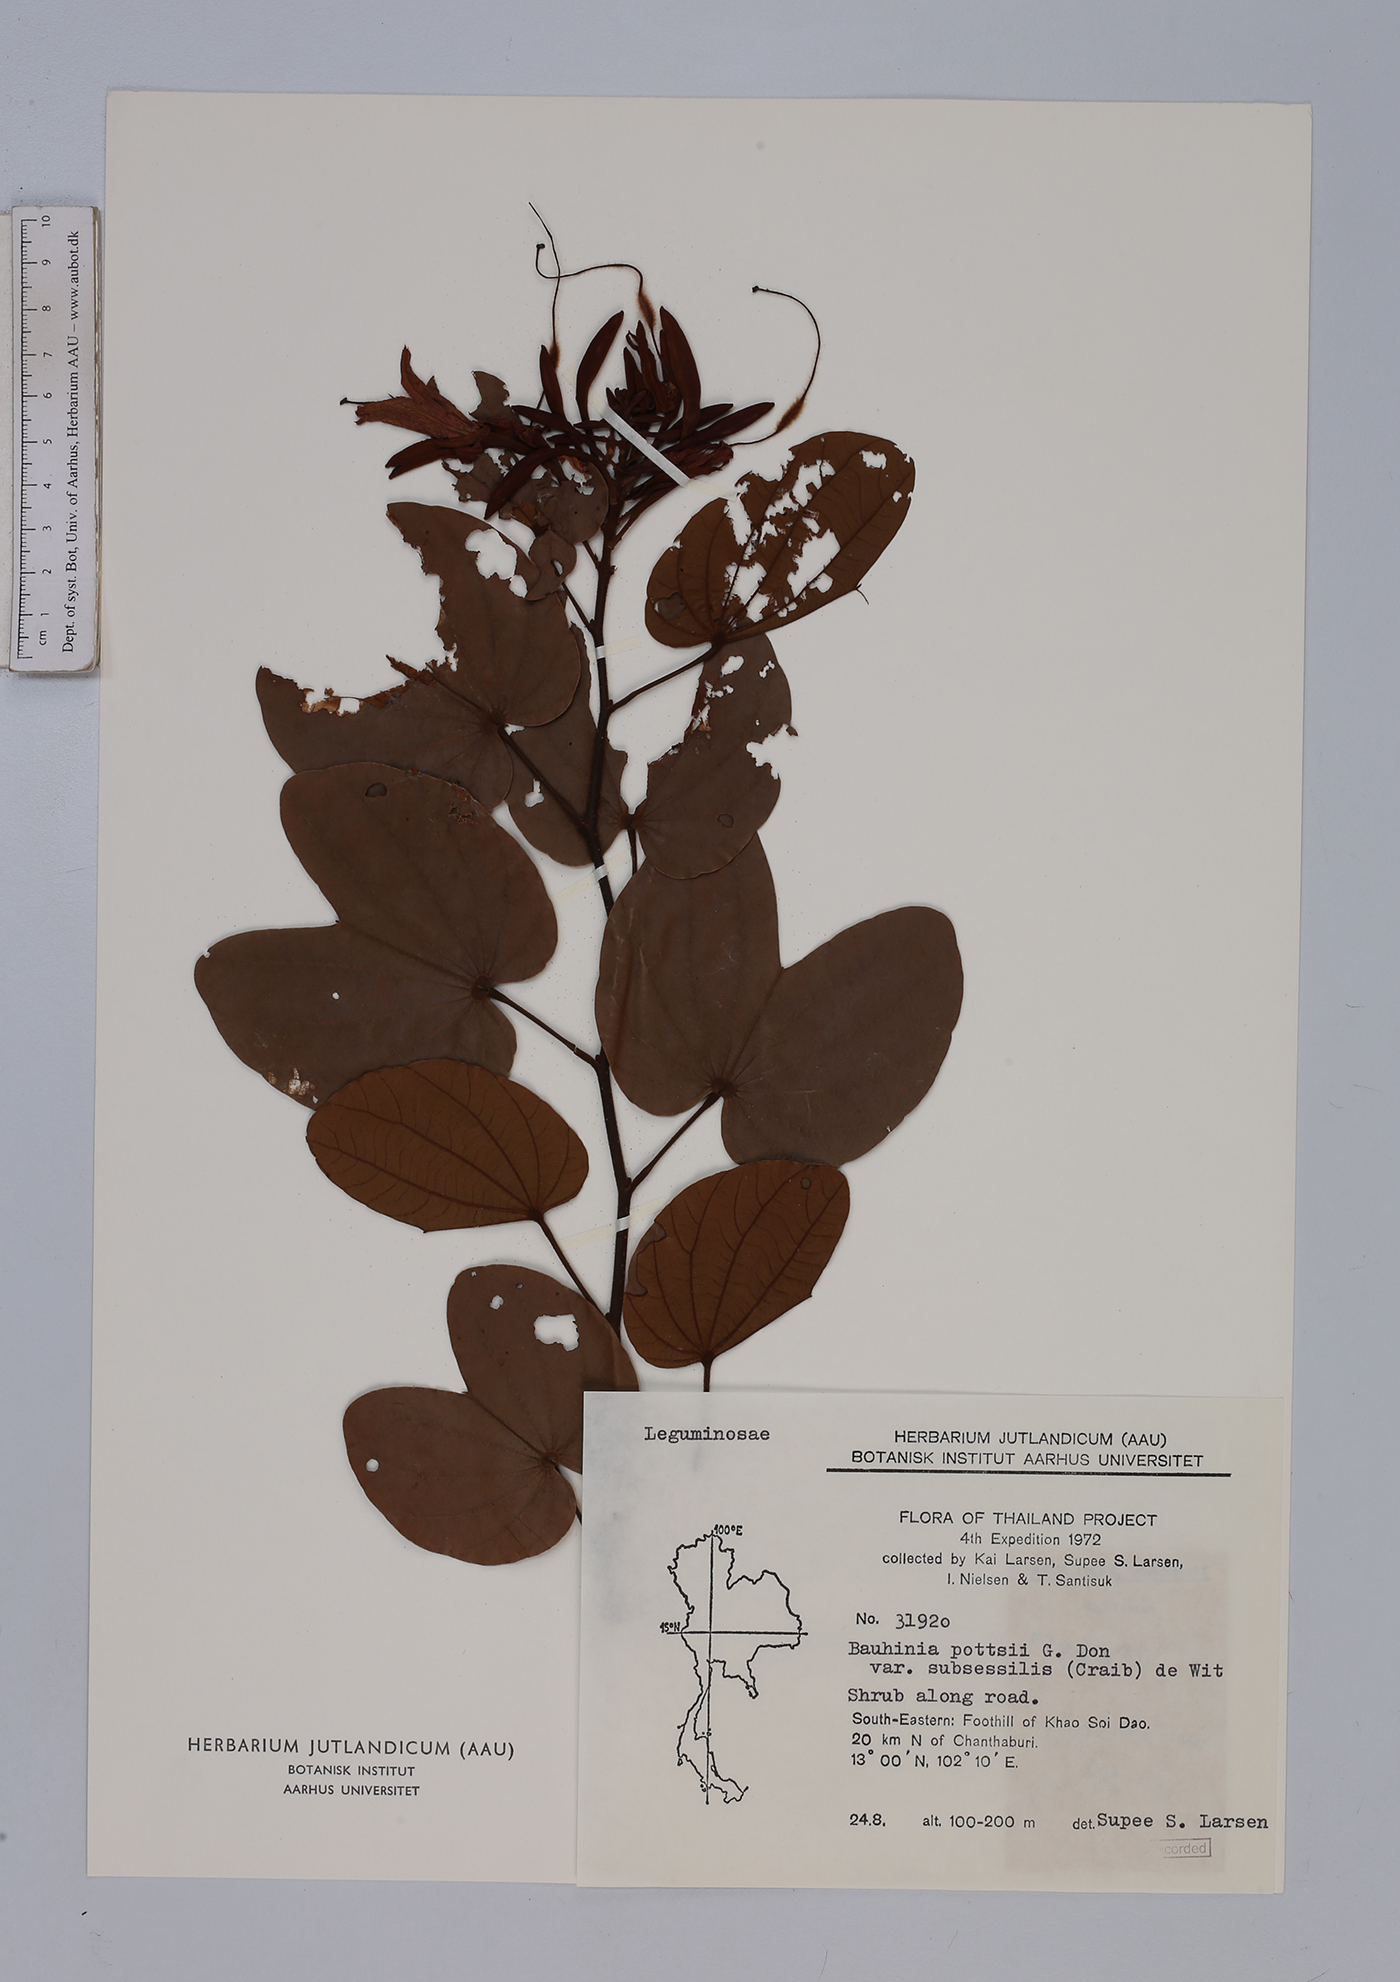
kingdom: Plantae
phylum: Tracheophyta
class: Magnoliopsida
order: Fabales
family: Fabaceae
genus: Bauhinia
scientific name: Bauhinia pottsii
